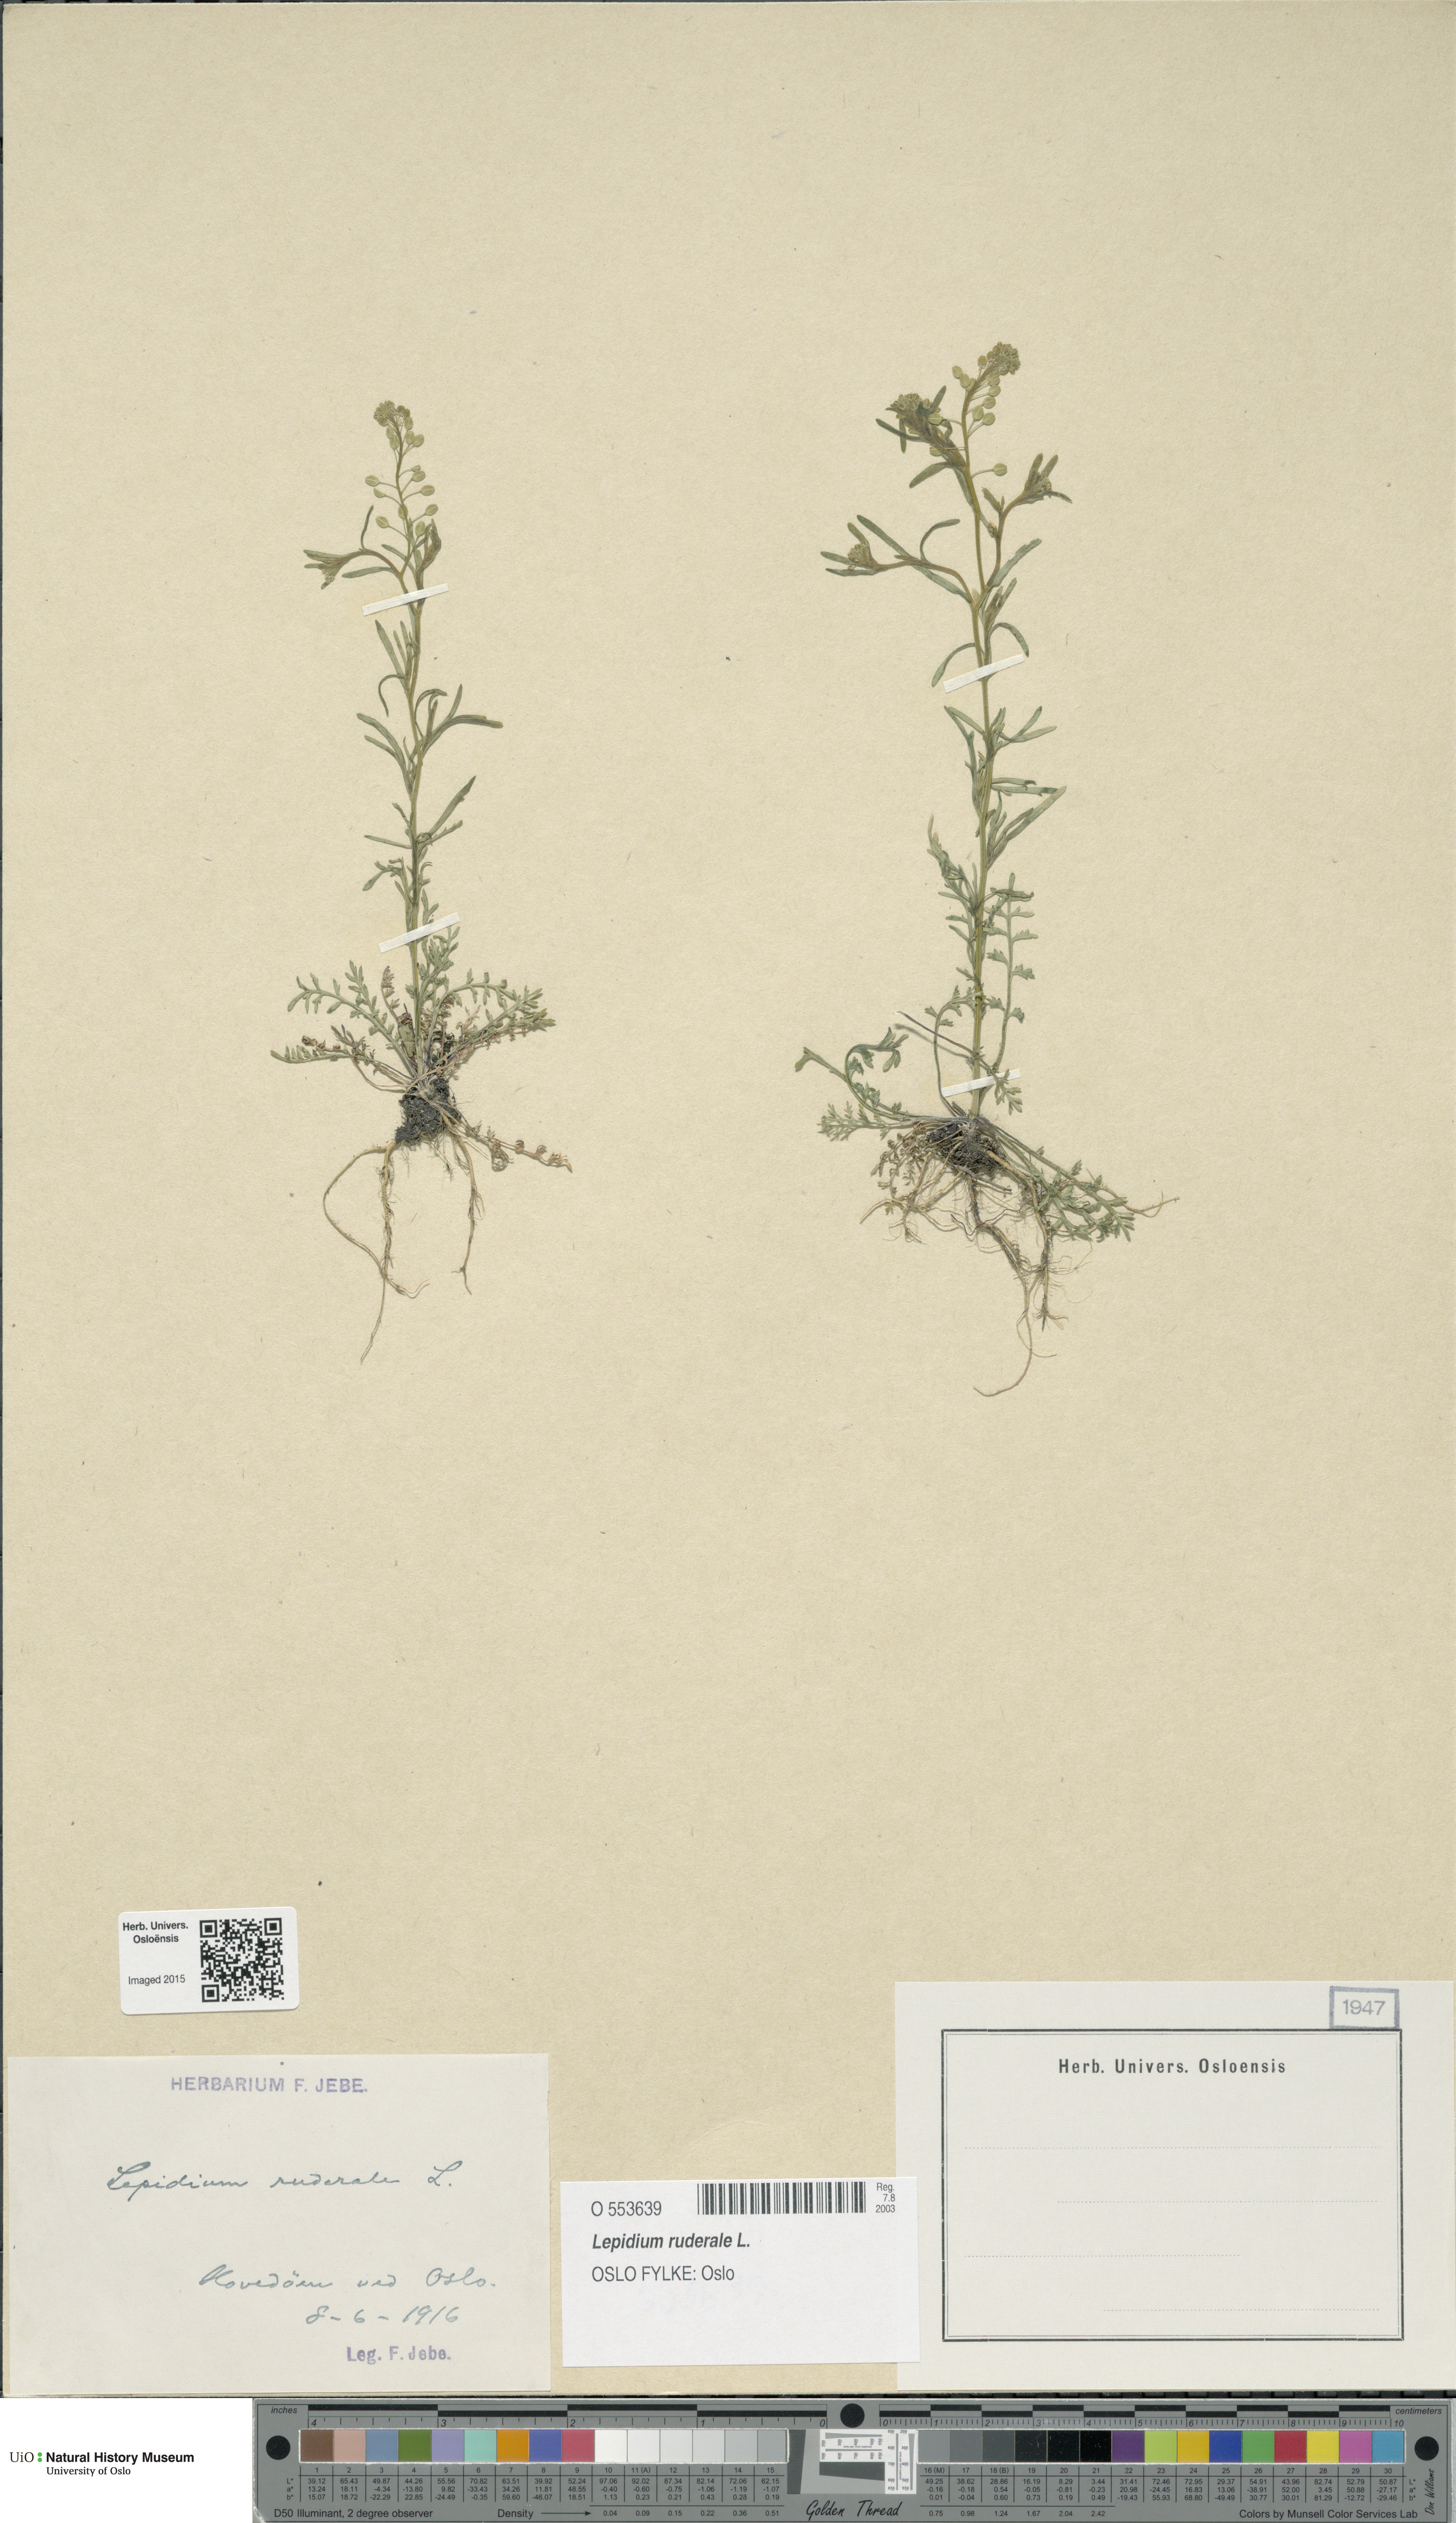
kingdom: Plantae
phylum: Tracheophyta
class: Magnoliopsida
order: Brassicales
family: Brassicaceae
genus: Lepidium
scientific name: Lepidium ruderale
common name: Narrow-leaved pepperwort
